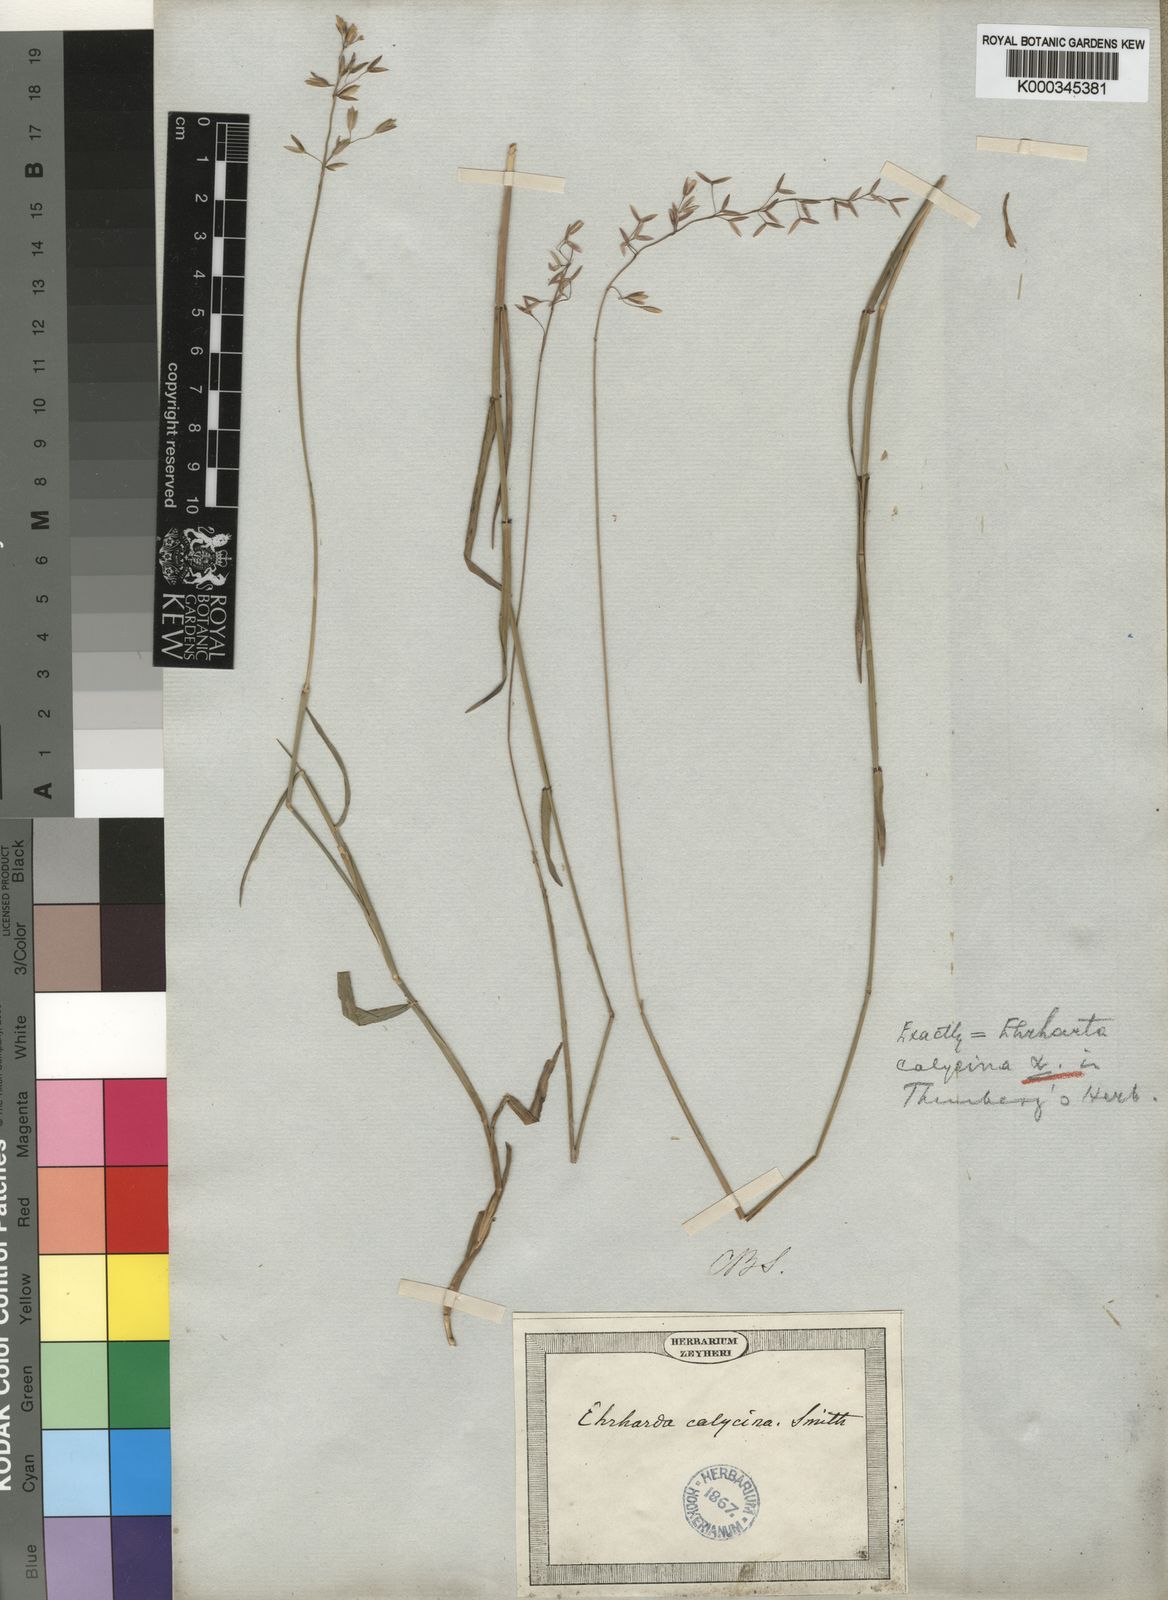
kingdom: Plantae
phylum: Tracheophyta
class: Liliopsida
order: Poales
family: Poaceae
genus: Ehrharta
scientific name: Ehrharta calycina
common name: Perennial veldtgrass
